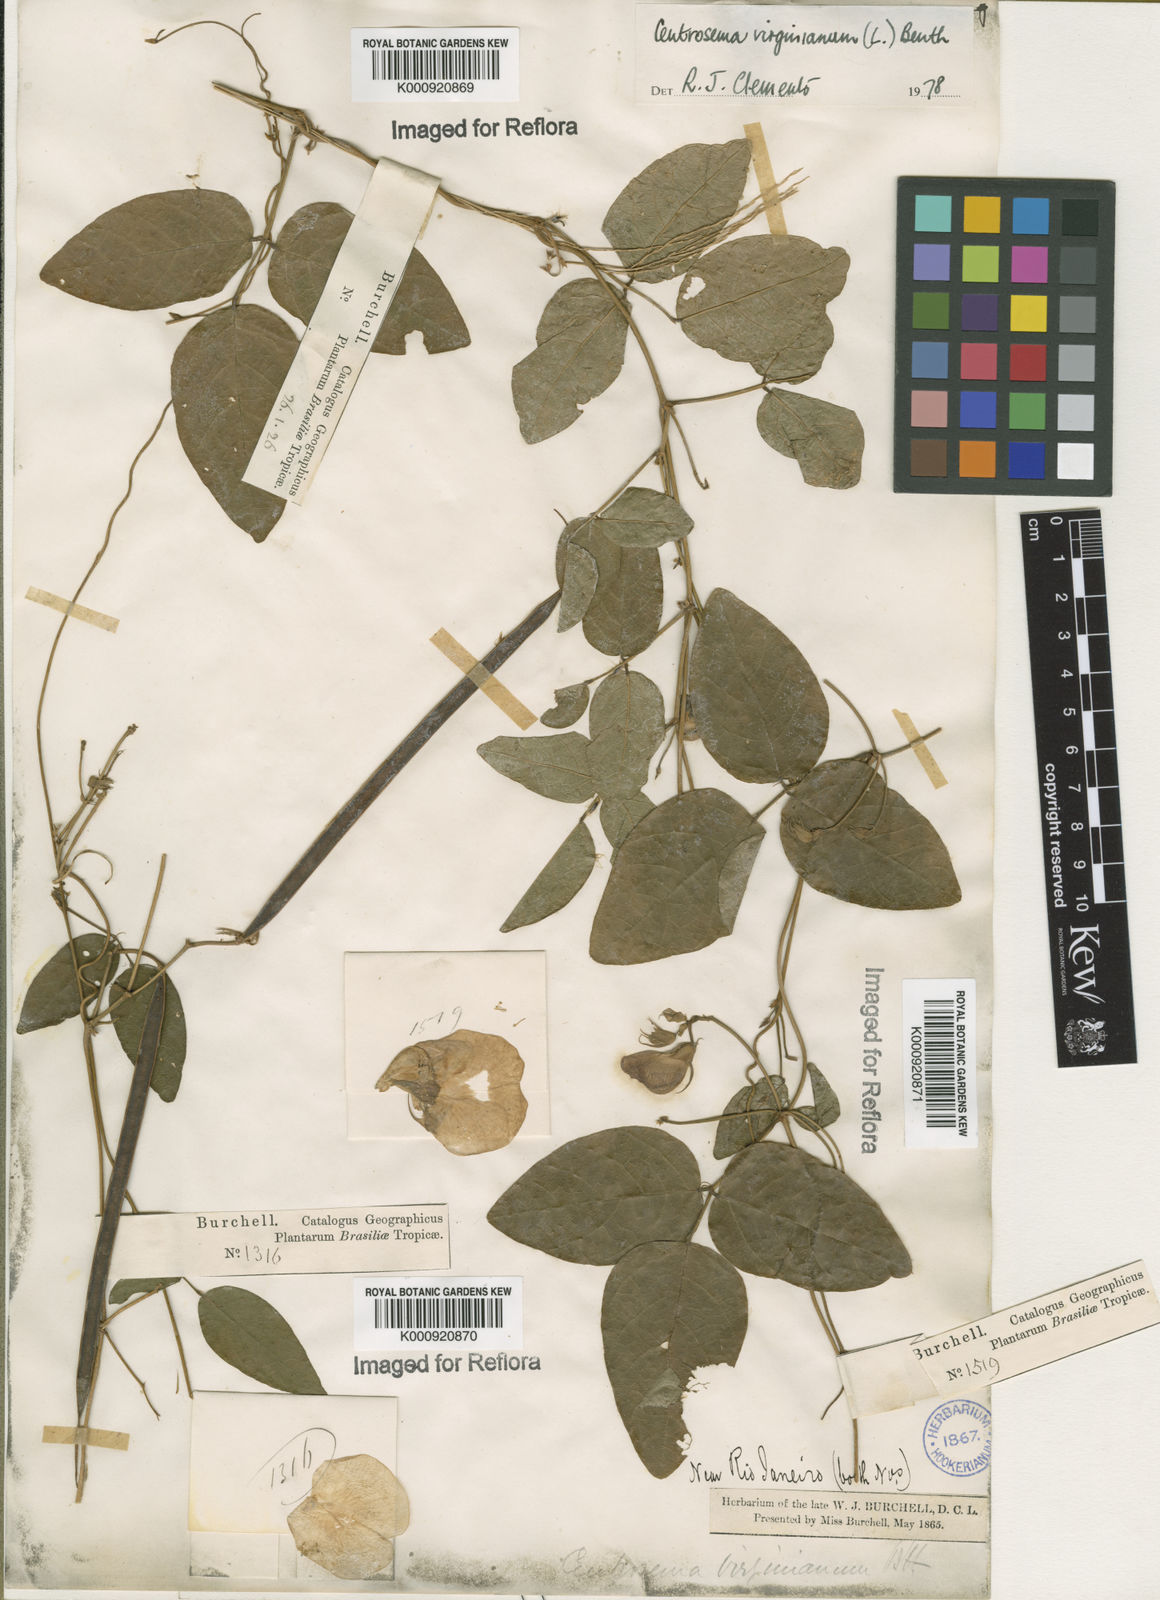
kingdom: Plantae
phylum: Tracheophyta
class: Magnoliopsida
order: Fabales
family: Fabaceae
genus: Centrosema
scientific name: Centrosema virginianum
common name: Butterfly-pea
